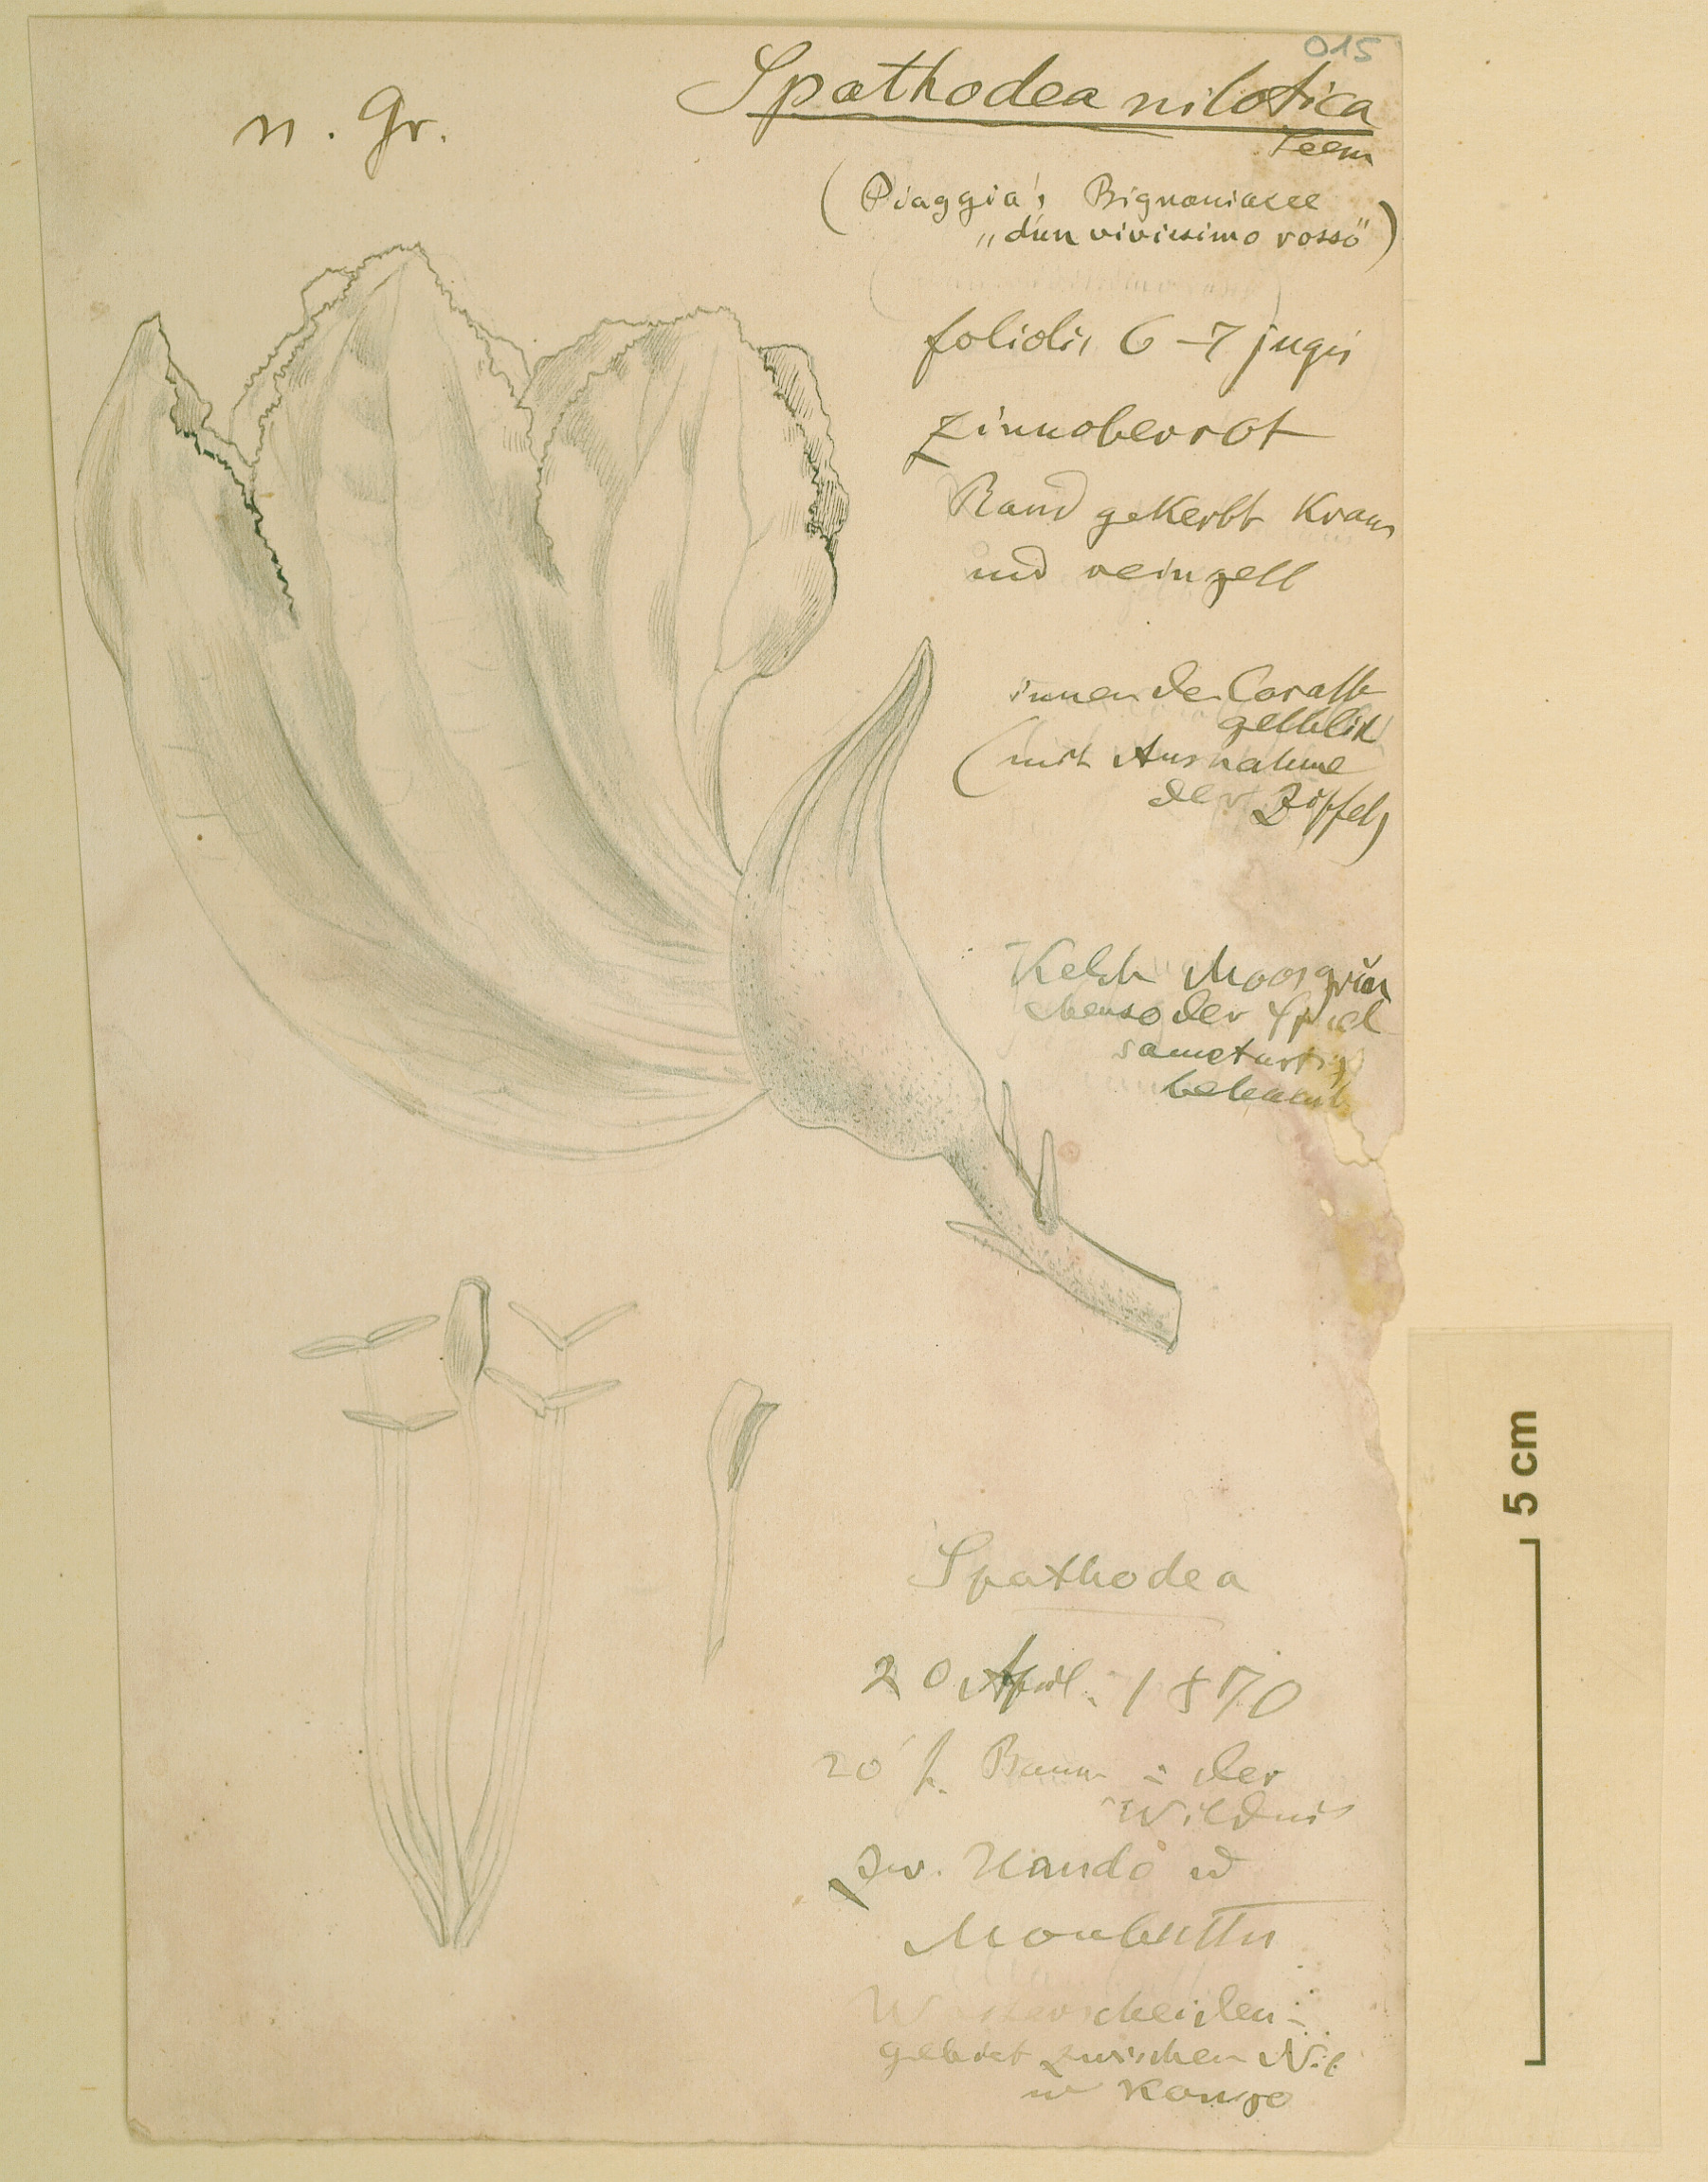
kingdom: Plantae
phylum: Tracheophyta
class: Magnoliopsida
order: Lamiales
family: Bignoniaceae
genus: Spathodea
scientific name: Spathodea campanulata
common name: African tuliptree
